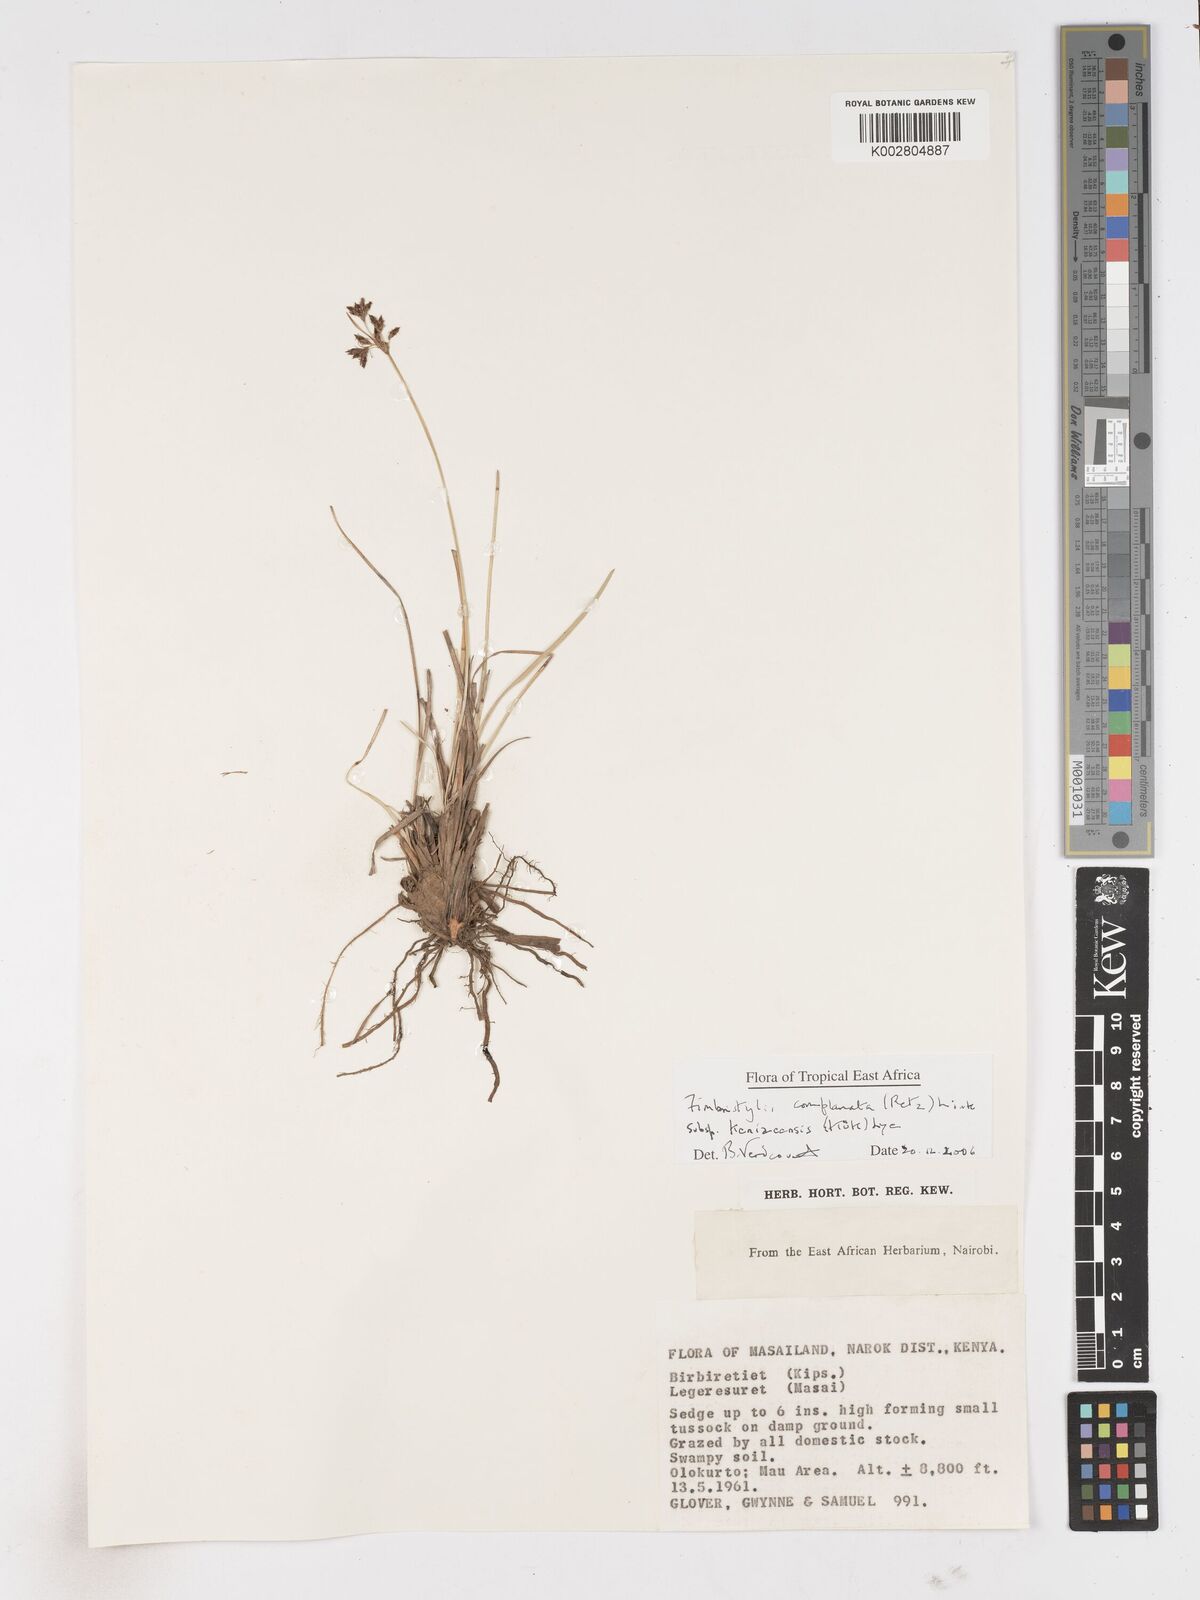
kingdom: Plantae
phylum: Tracheophyta
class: Liliopsida
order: Poales
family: Cyperaceae
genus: Fimbristylis
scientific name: Fimbristylis complanata
